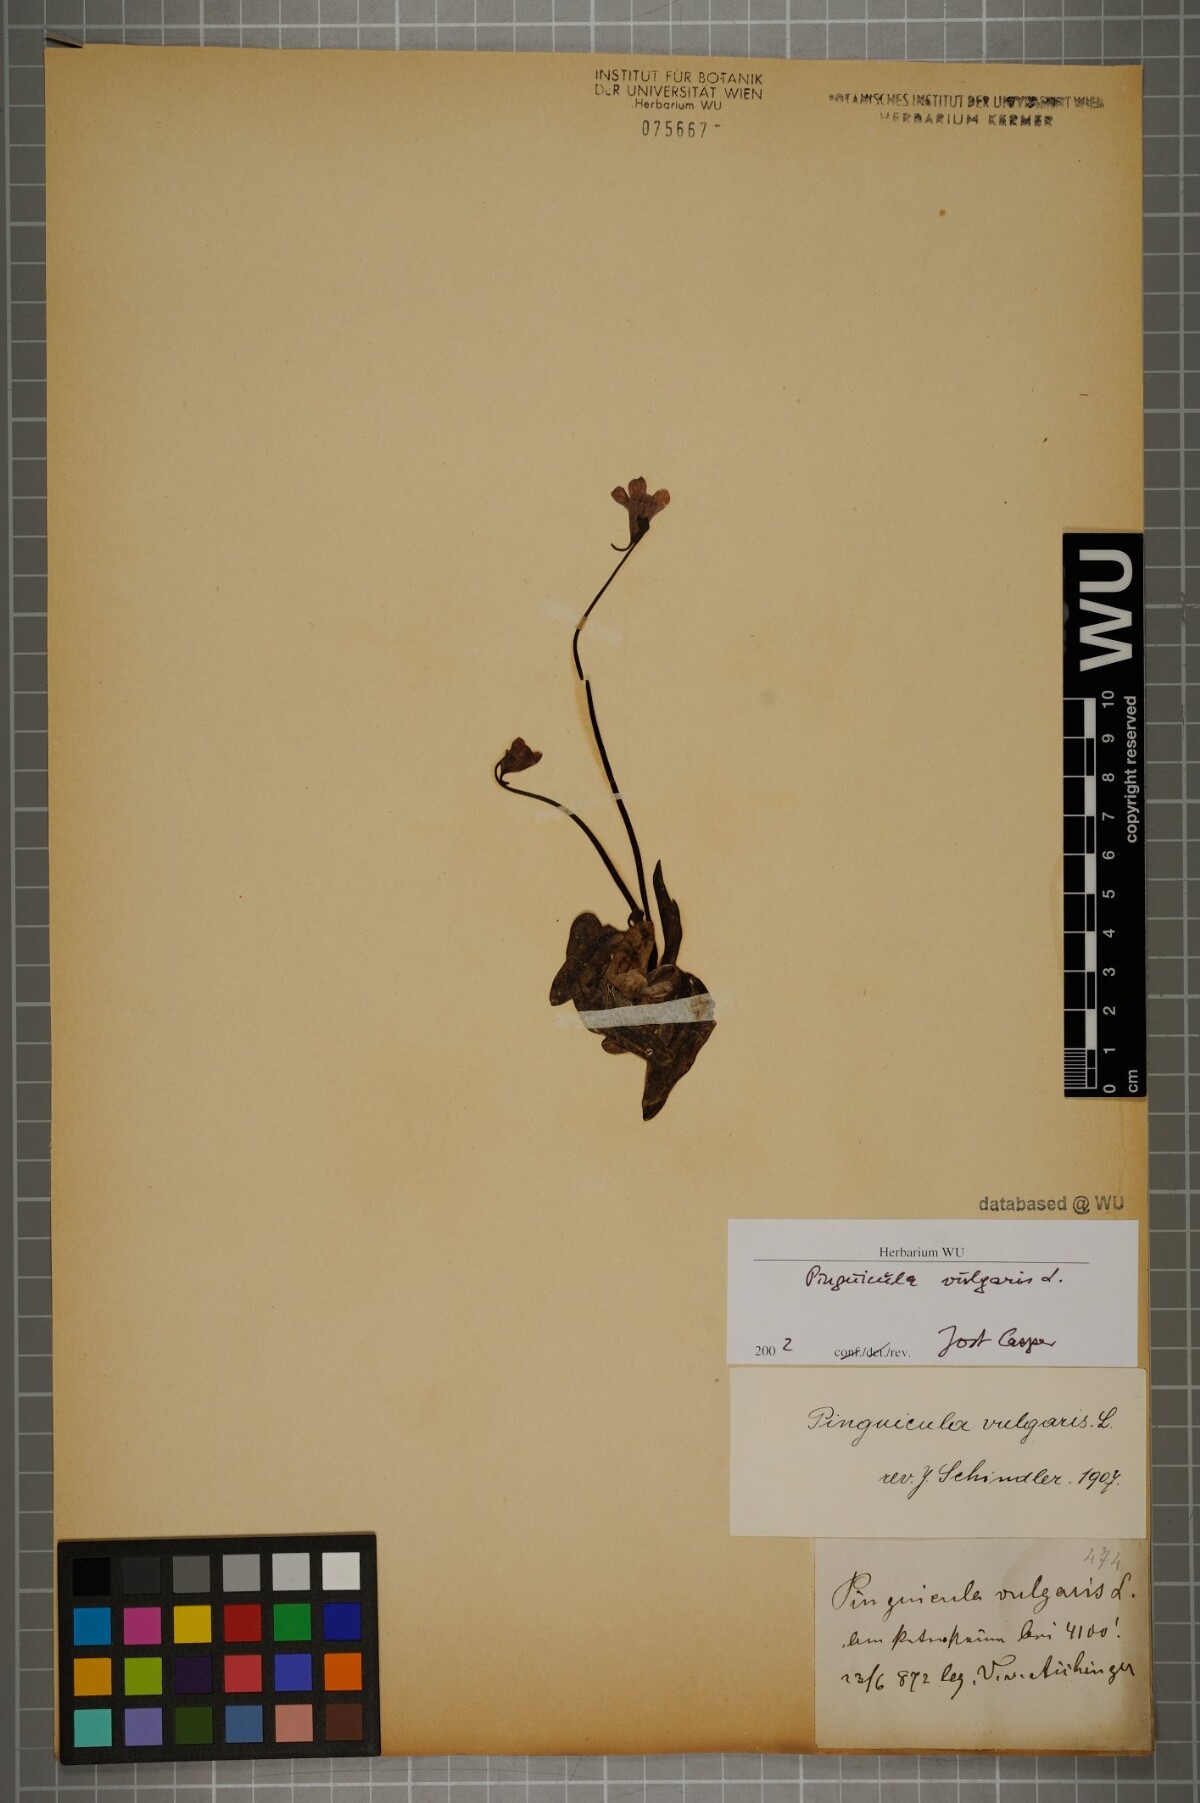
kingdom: Plantae
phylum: Tracheophyta
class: Magnoliopsida
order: Lamiales
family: Lentibulariaceae
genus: Pinguicula
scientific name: Pinguicula vulgaris
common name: Common butterwort
